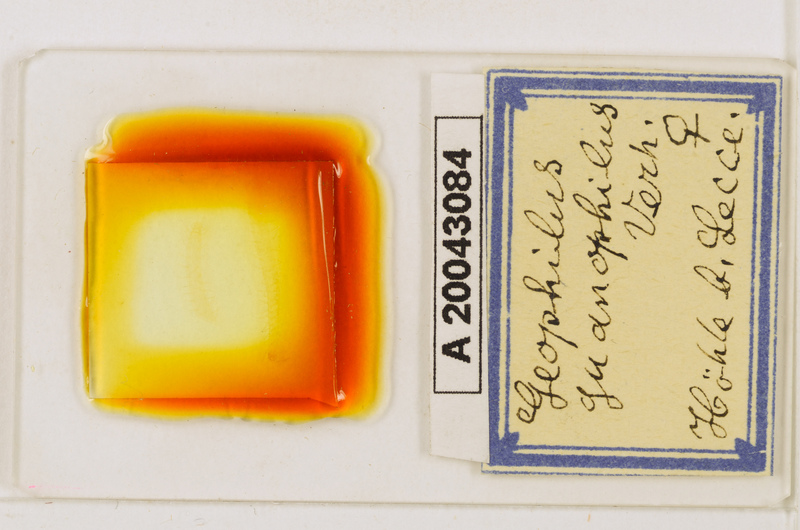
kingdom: Animalia
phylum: Arthropoda
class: Chilopoda
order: Geophilomorpha
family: Geophilidae
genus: Geophilus
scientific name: Geophilus guanophilus
